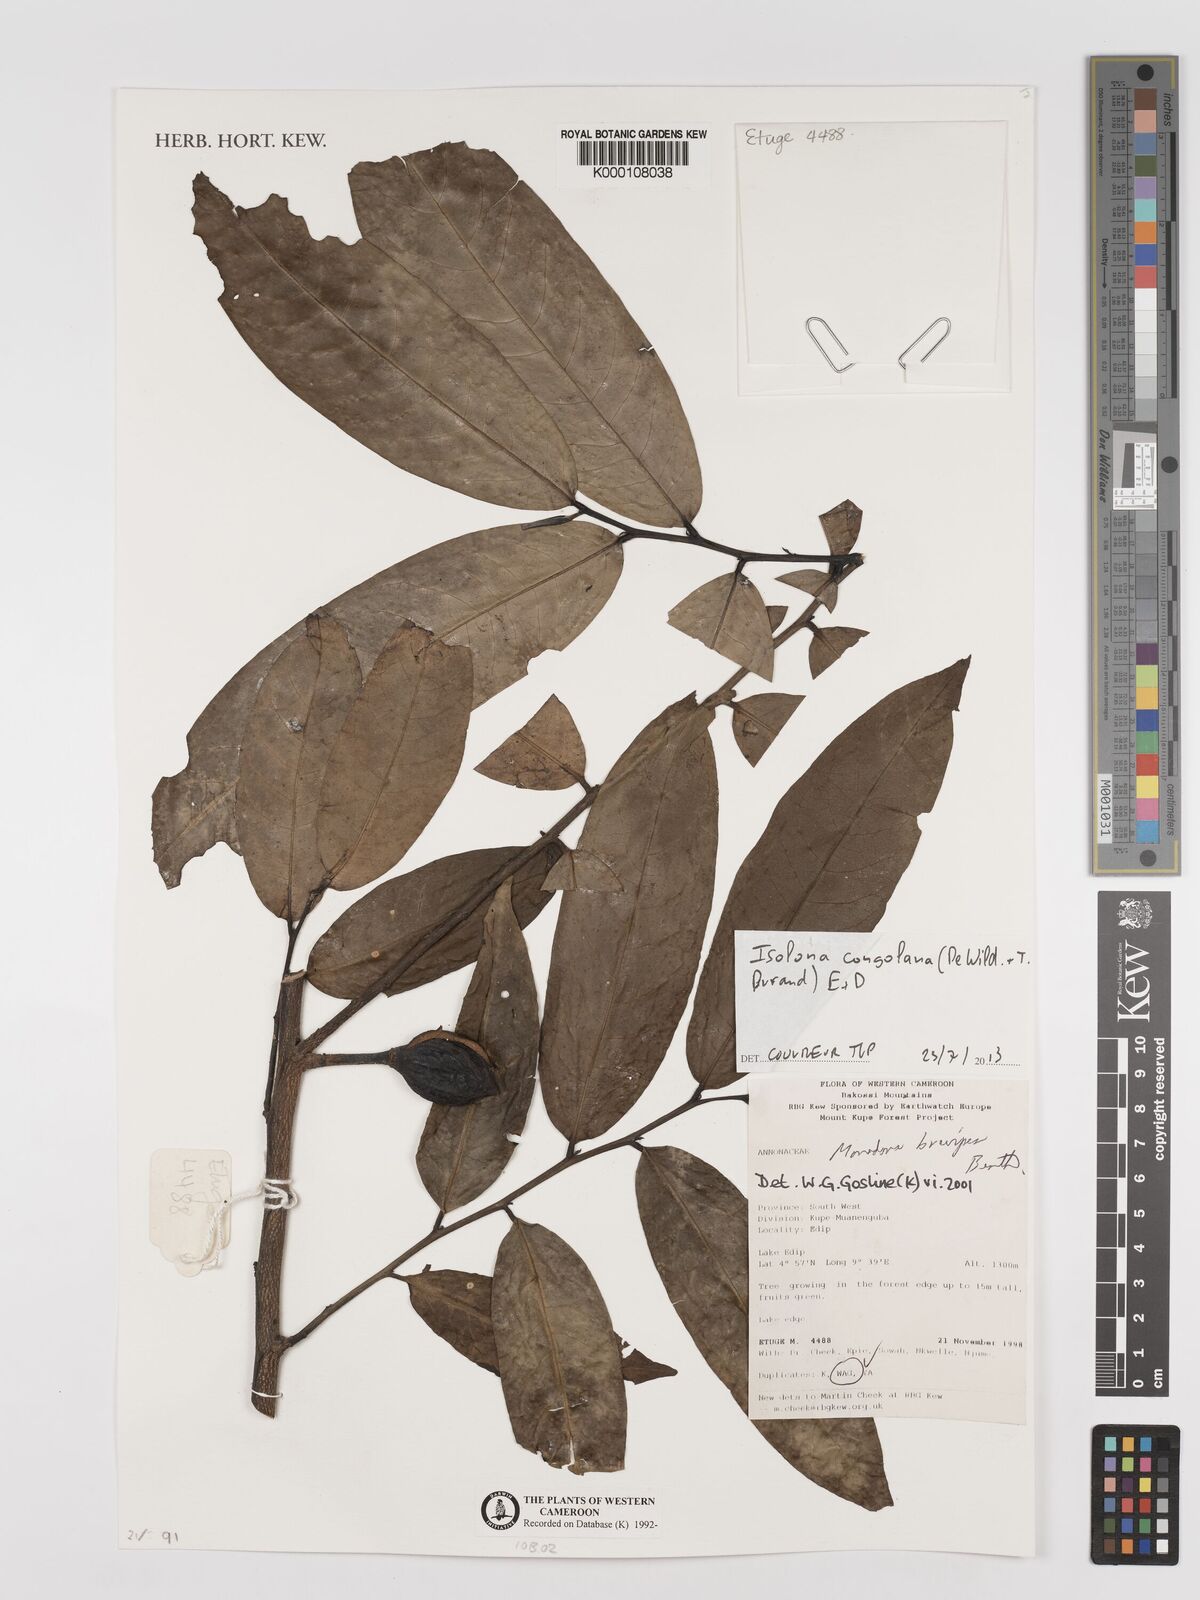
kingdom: Plantae
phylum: Tracheophyta
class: Magnoliopsida
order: Magnoliales
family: Annonaceae
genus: Monodora
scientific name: Monodora undulata
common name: Yellow-flower-nutmeg
